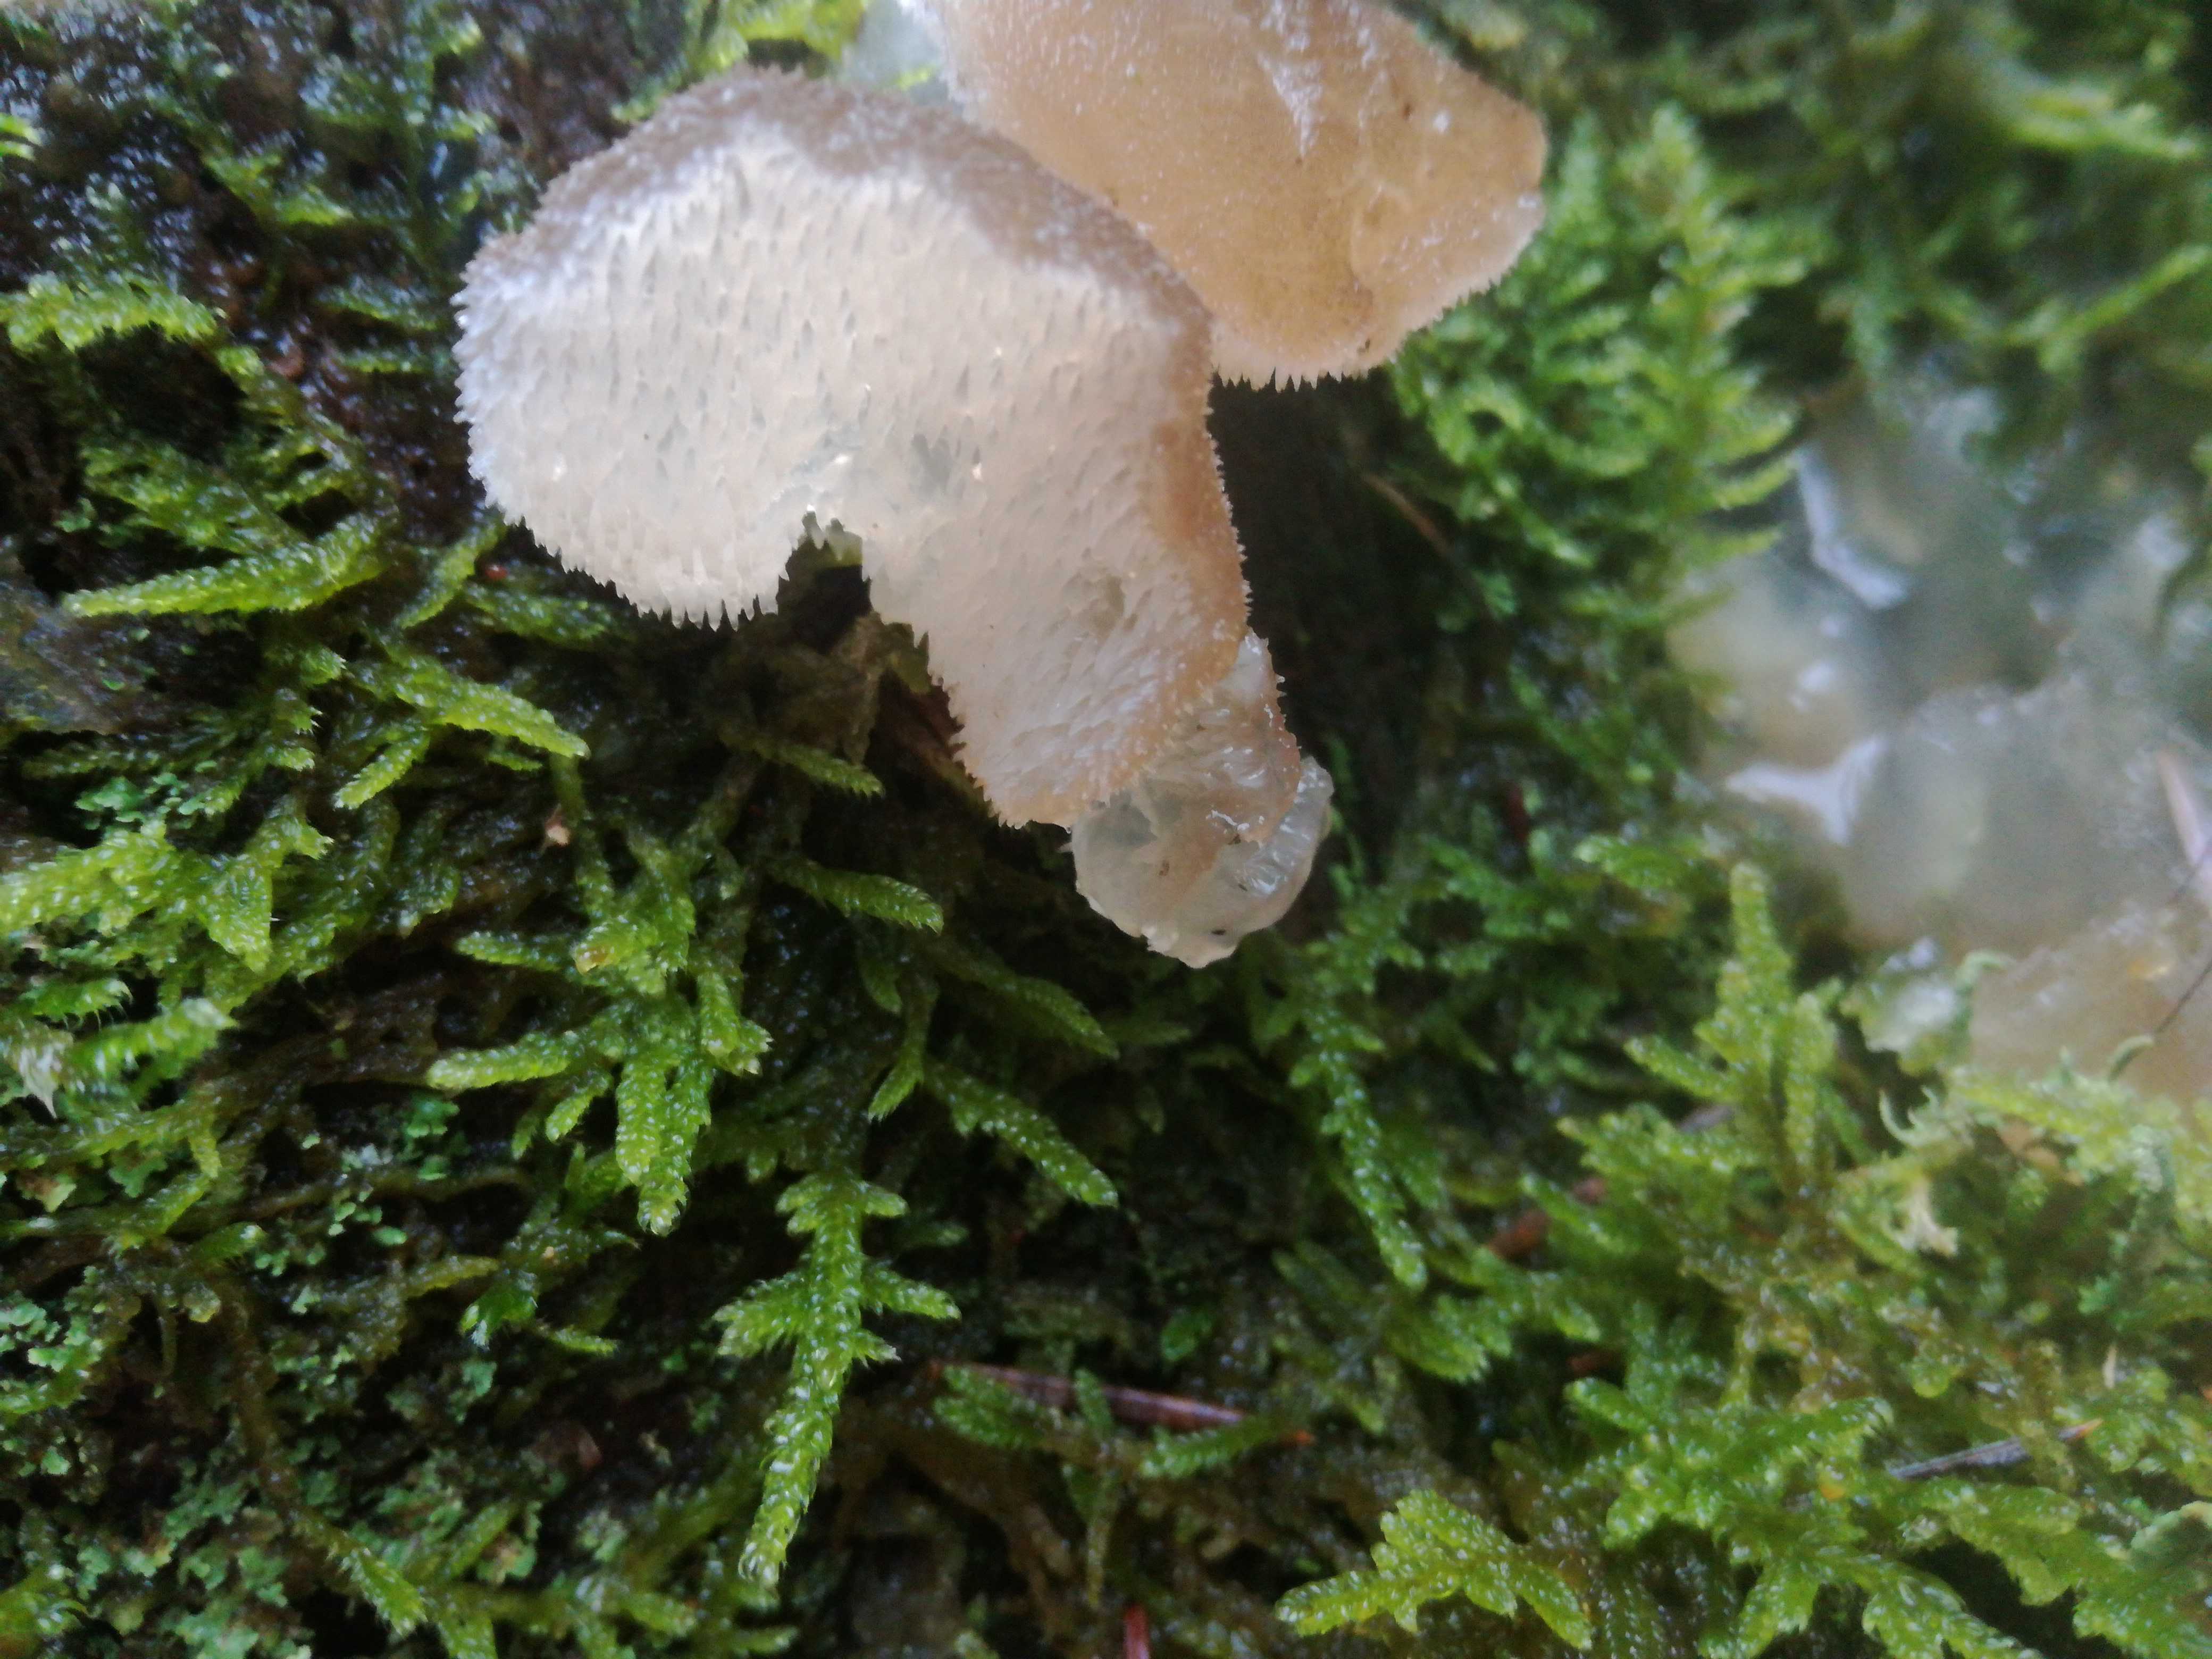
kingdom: Fungi
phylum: Basidiomycota
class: Agaricomycetes
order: Auriculariales
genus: Pseudohydnum
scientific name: Pseudohydnum gelatinosum
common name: bævretand
